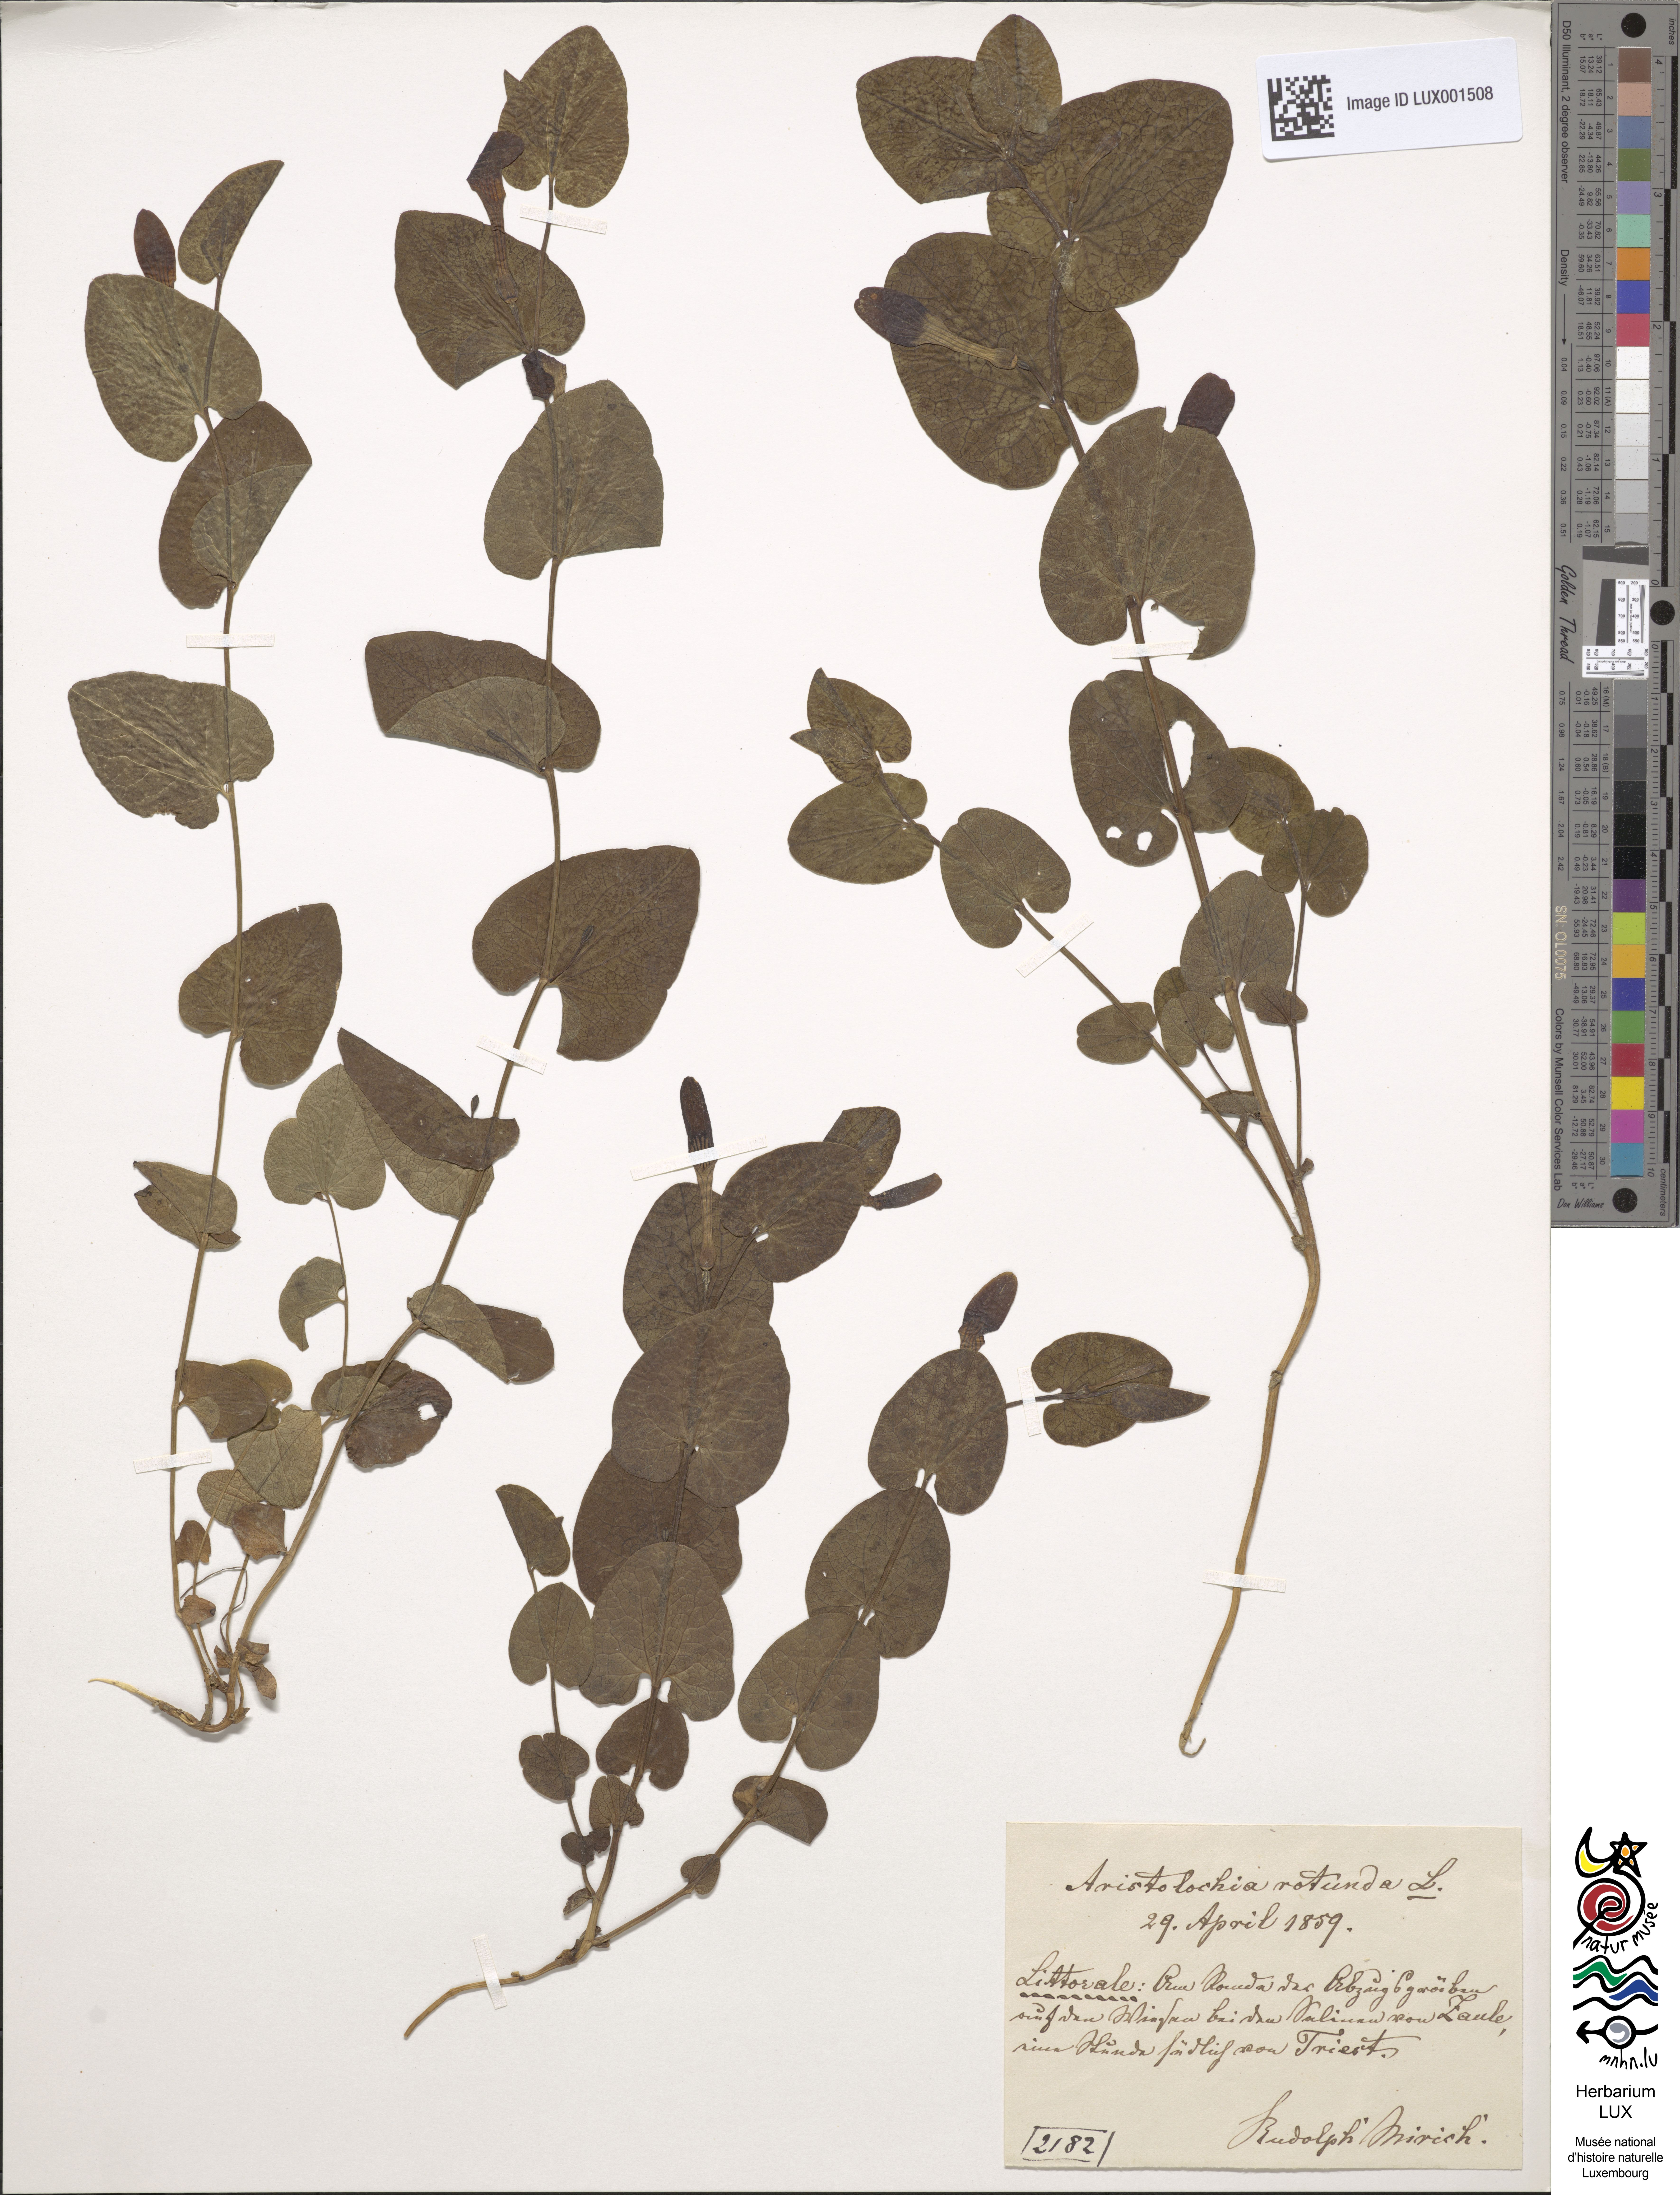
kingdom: Plantae
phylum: Tracheophyta
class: Magnoliopsida
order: Piperales
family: Aristolochiaceae
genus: Aristolochia
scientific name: Aristolochia rotunda
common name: Smearwort
